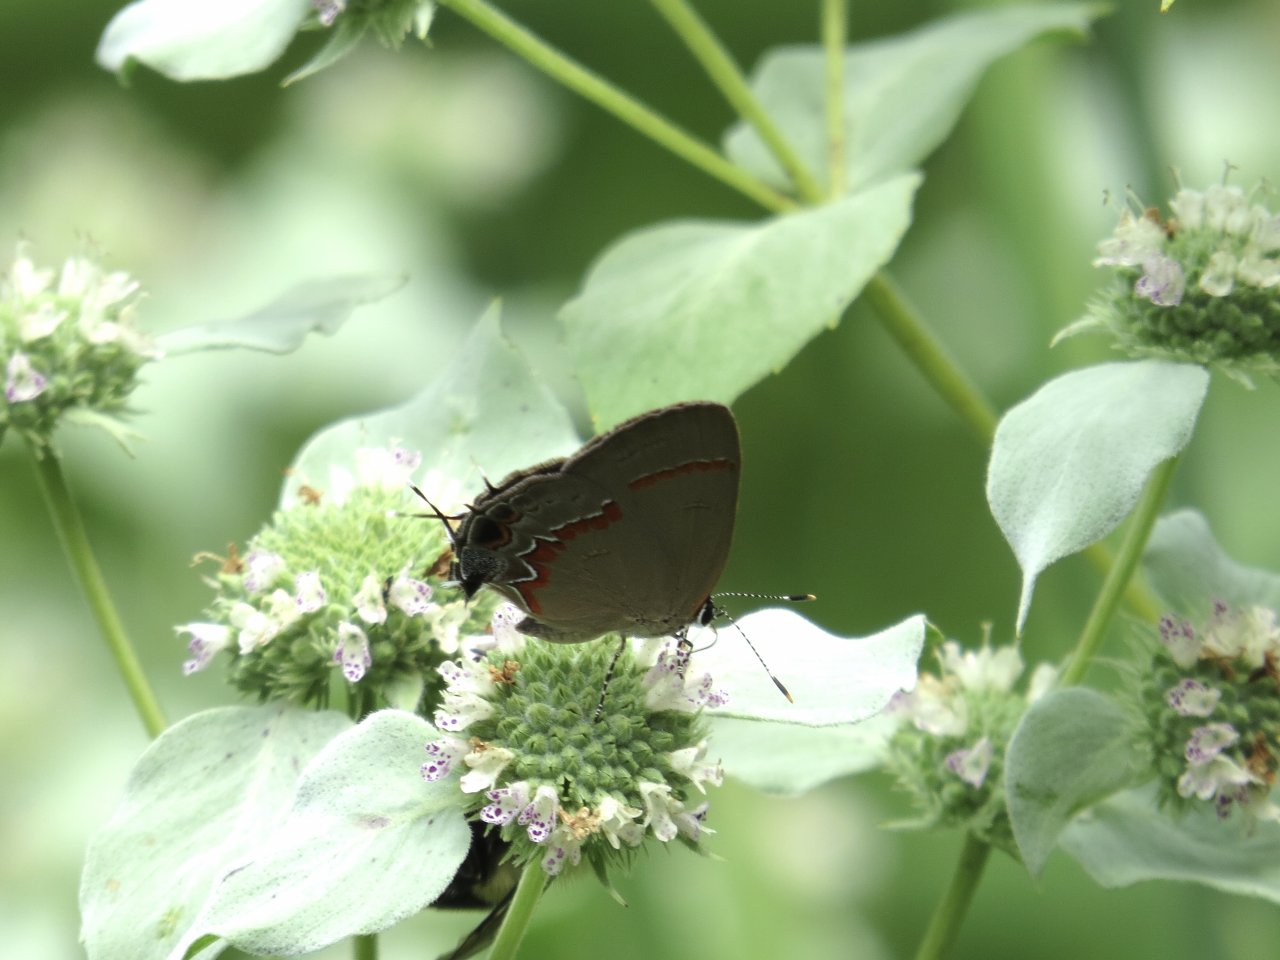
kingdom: Animalia
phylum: Arthropoda
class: Insecta
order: Lepidoptera
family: Lycaenidae
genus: Calycopis
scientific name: Calycopis cecrops
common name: Red-banded Hairstreak
